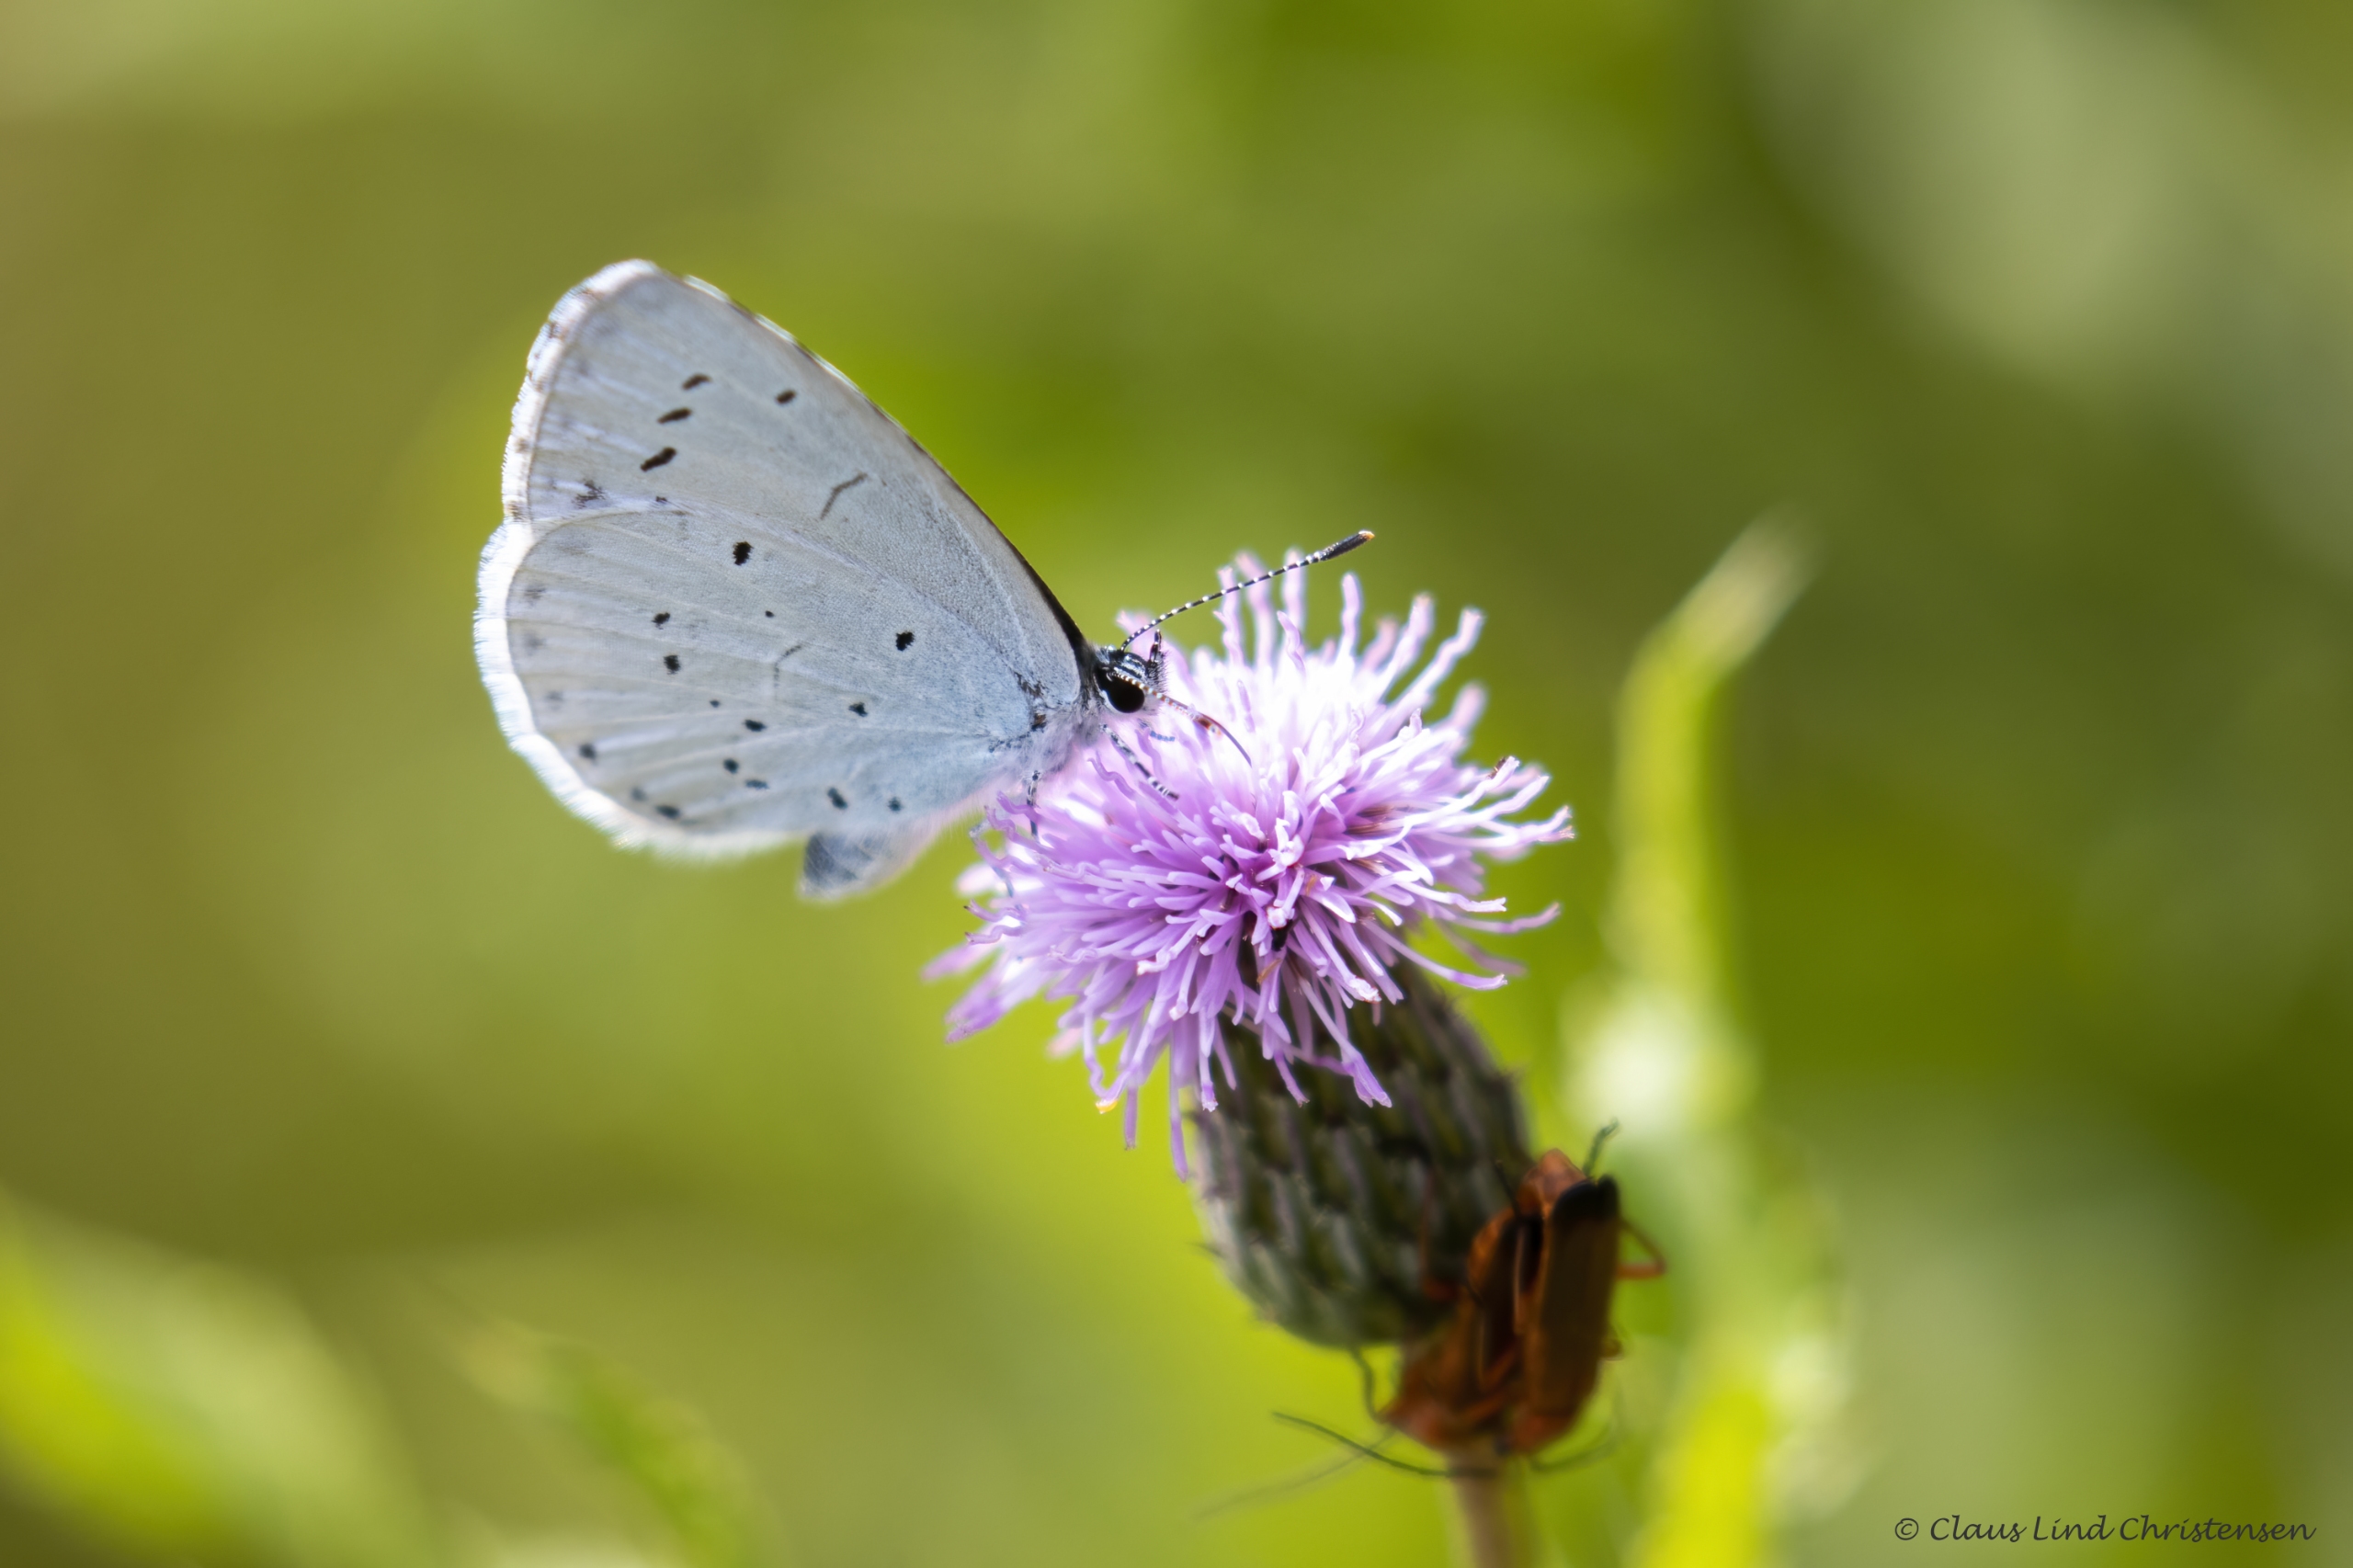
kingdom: Animalia
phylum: Arthropoda
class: Insecta
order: Lepidoptera
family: Lycaenidae
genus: Celastrina
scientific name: Celastrina argiolus
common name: Skovblåfugl
